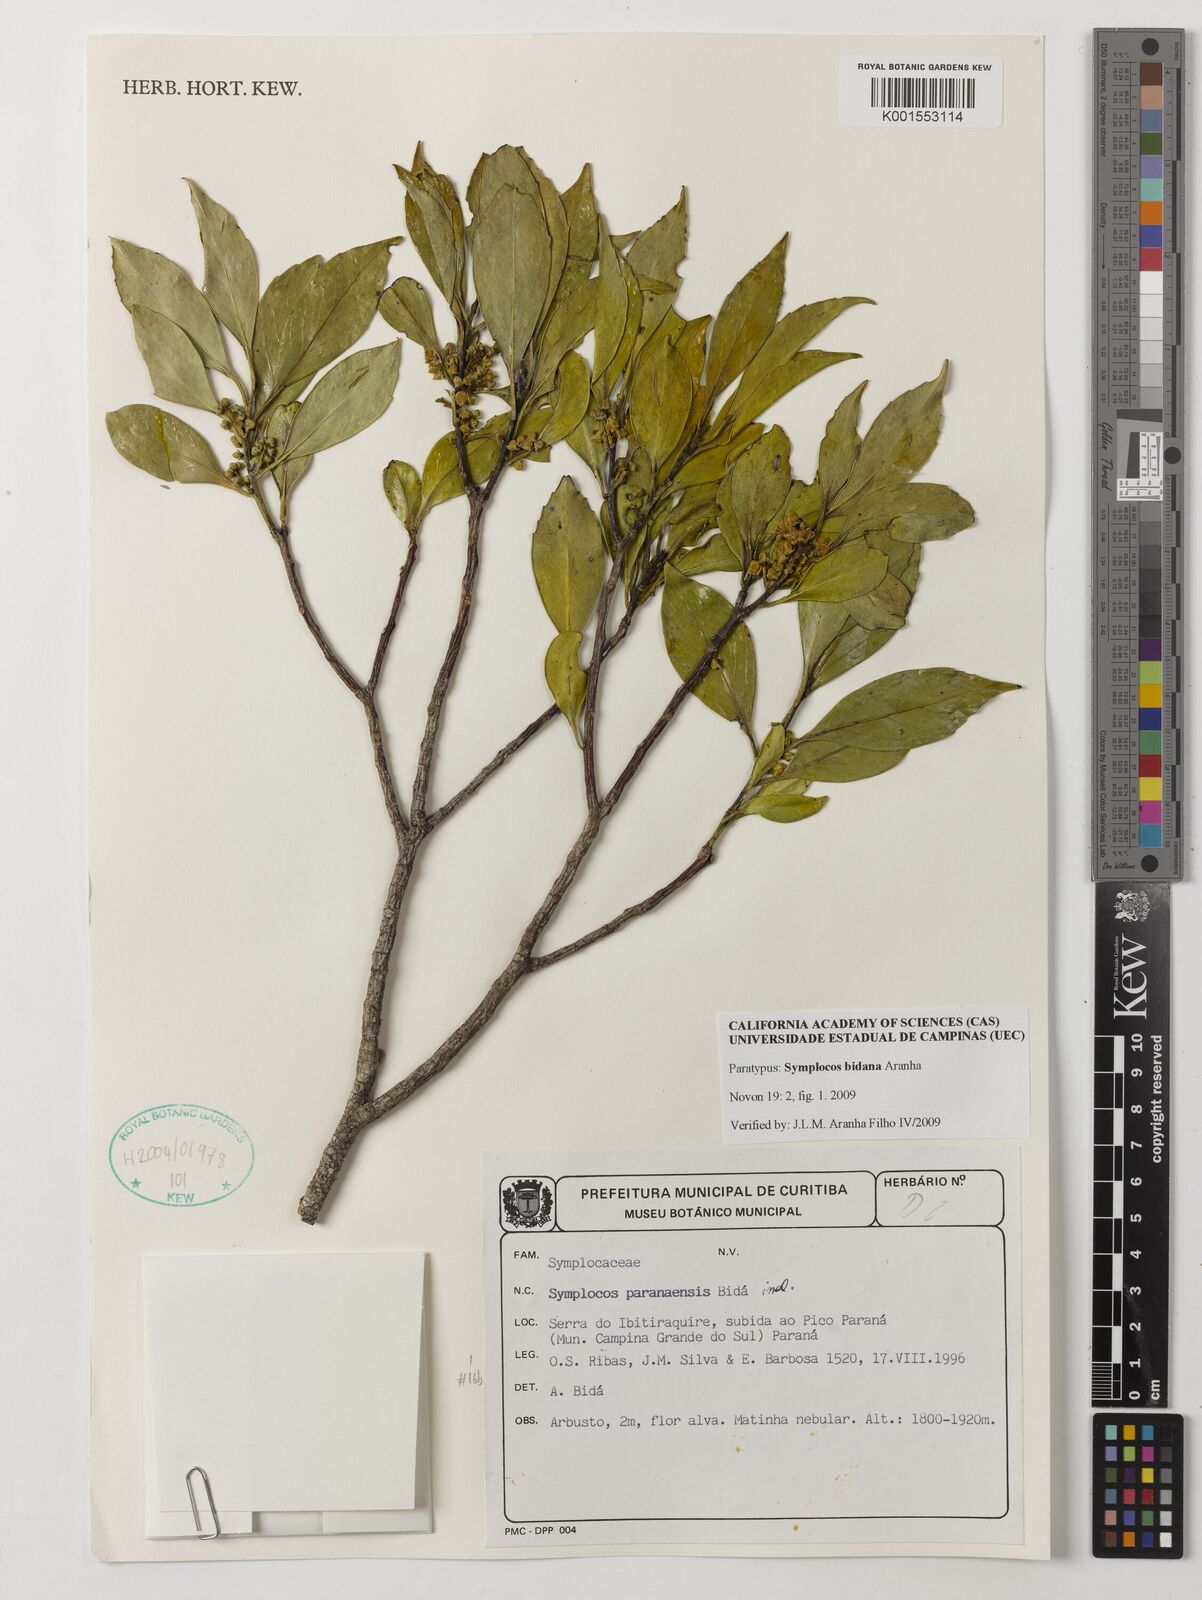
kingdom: Plantae
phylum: Tracheophyta
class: Magnoliopsida
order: Ericales
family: Symplocaceae
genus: Symplocos
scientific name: Symplocos bidana
